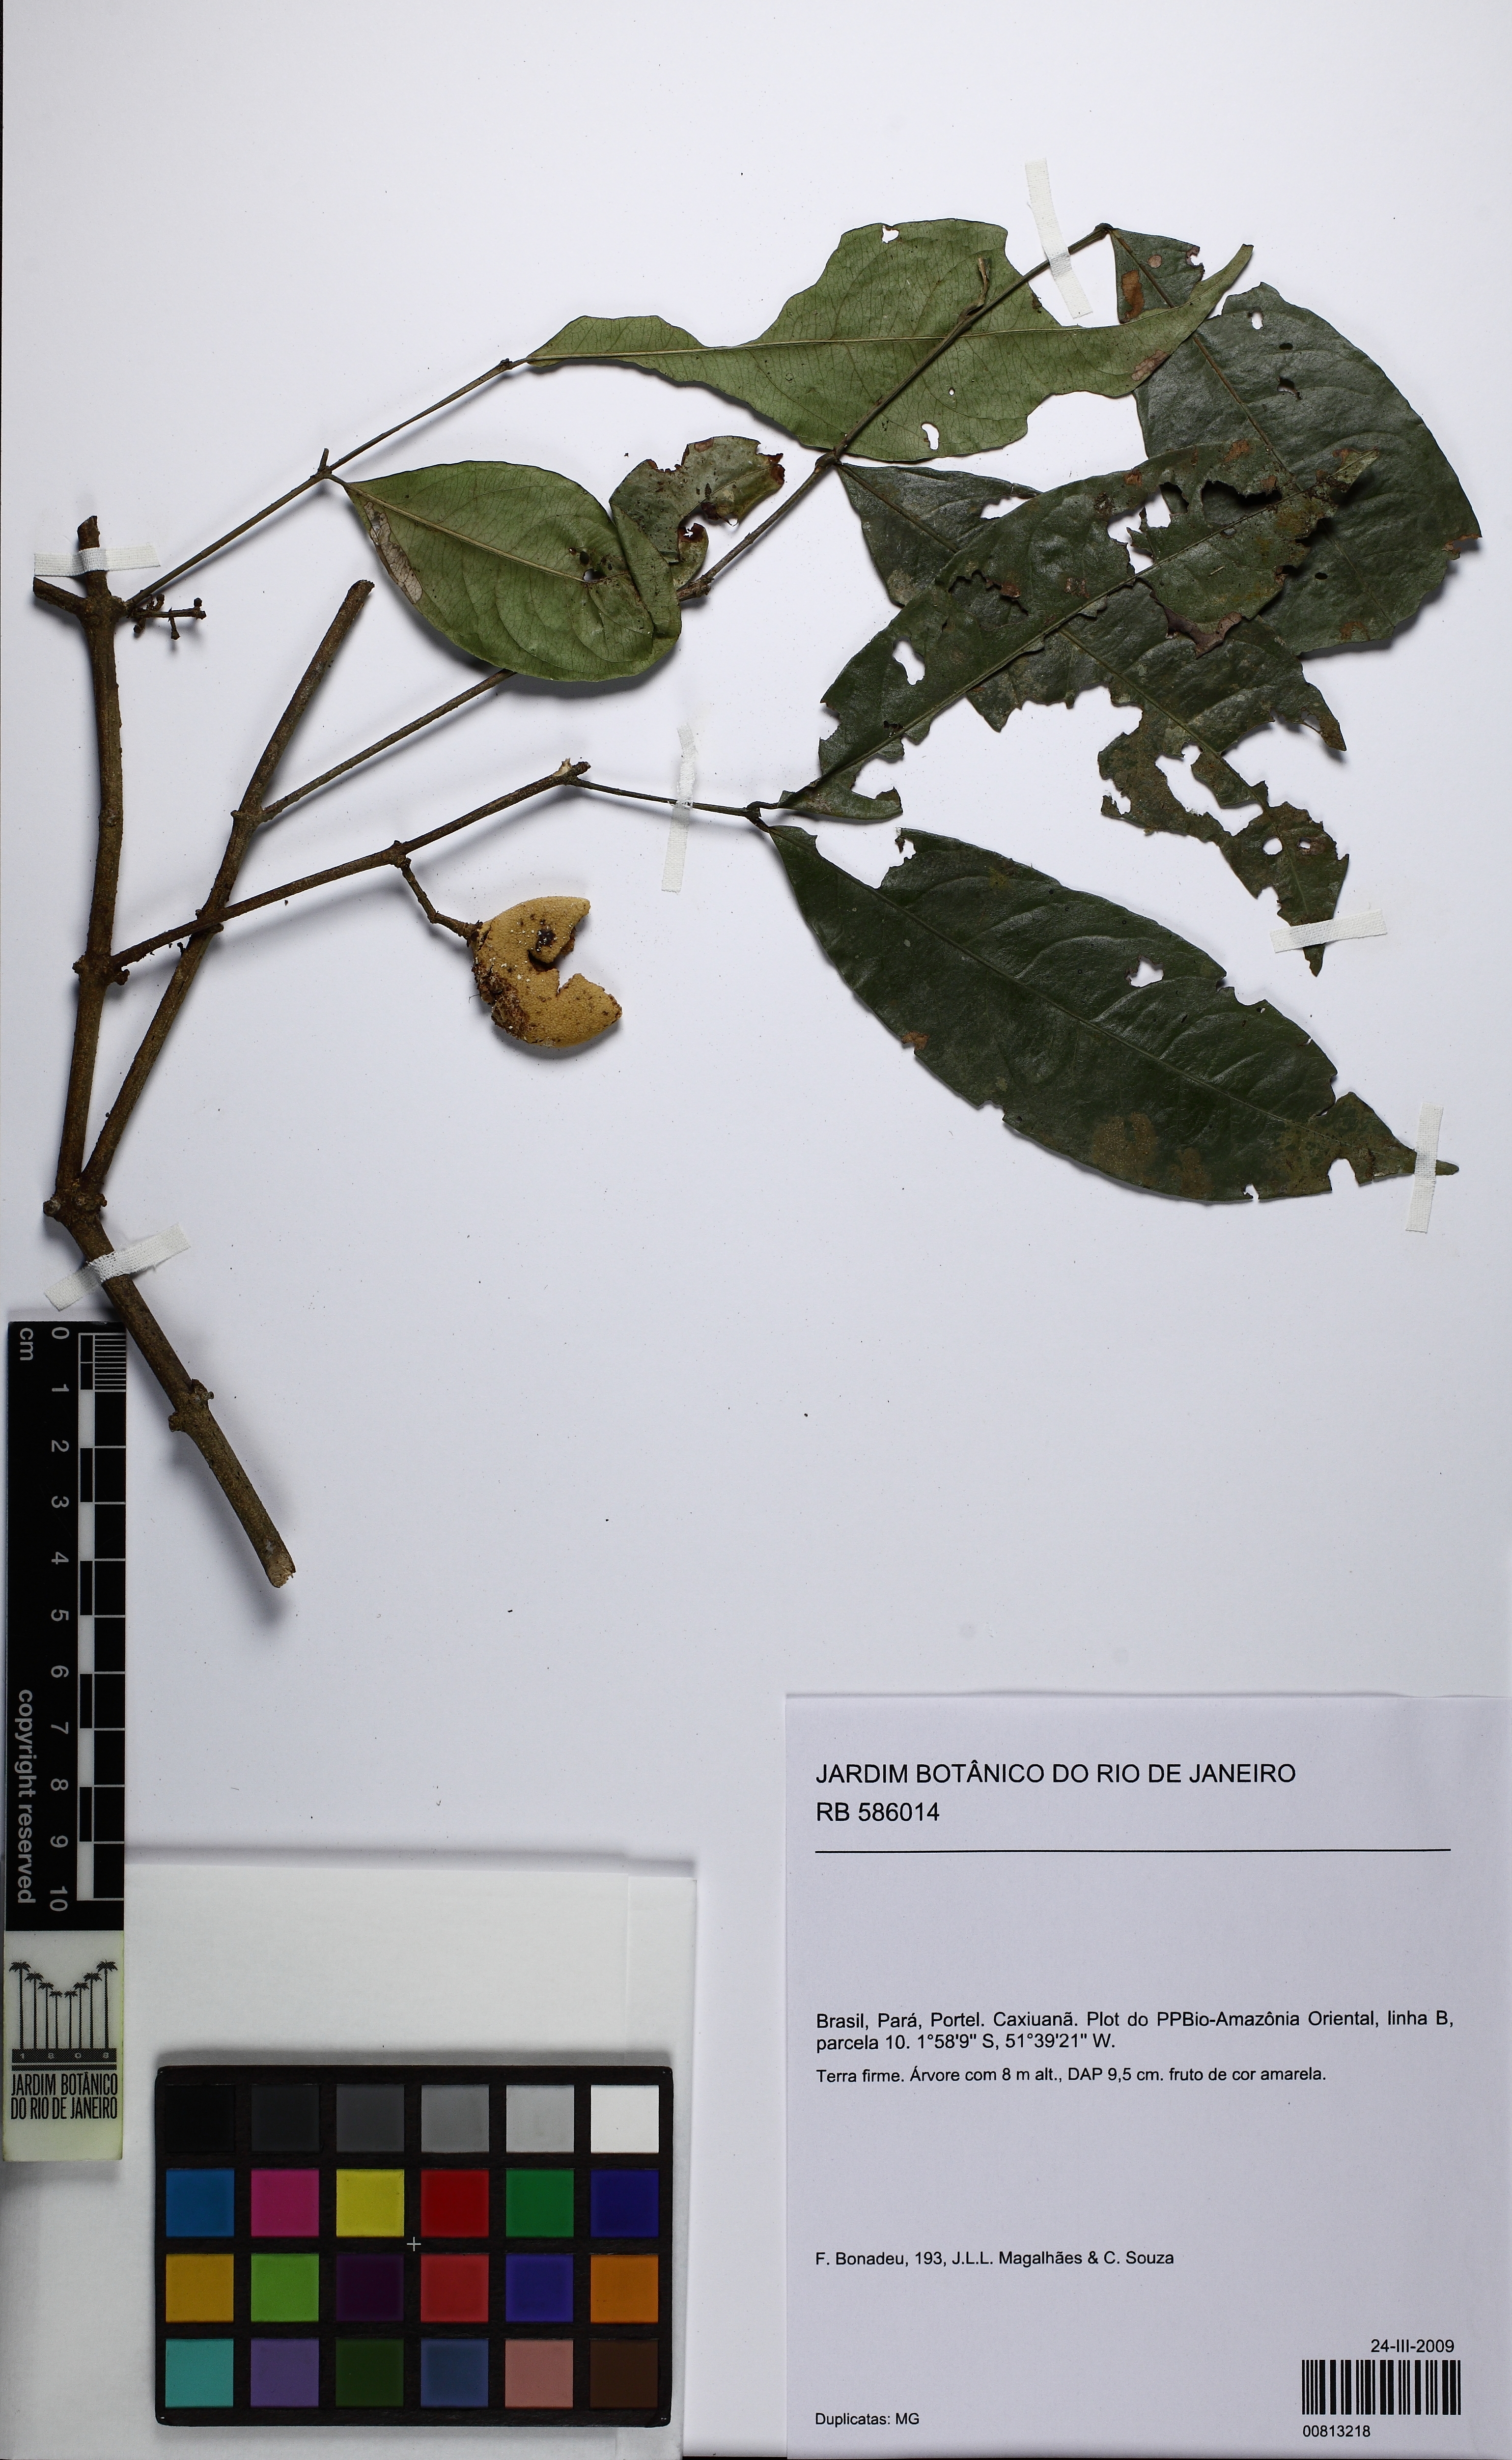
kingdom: Plantae
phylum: Tracheophyta
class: Magnoliopsida
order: Celastrales
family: Celastraceae
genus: Cheiloclinium
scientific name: Cheiloclinium
